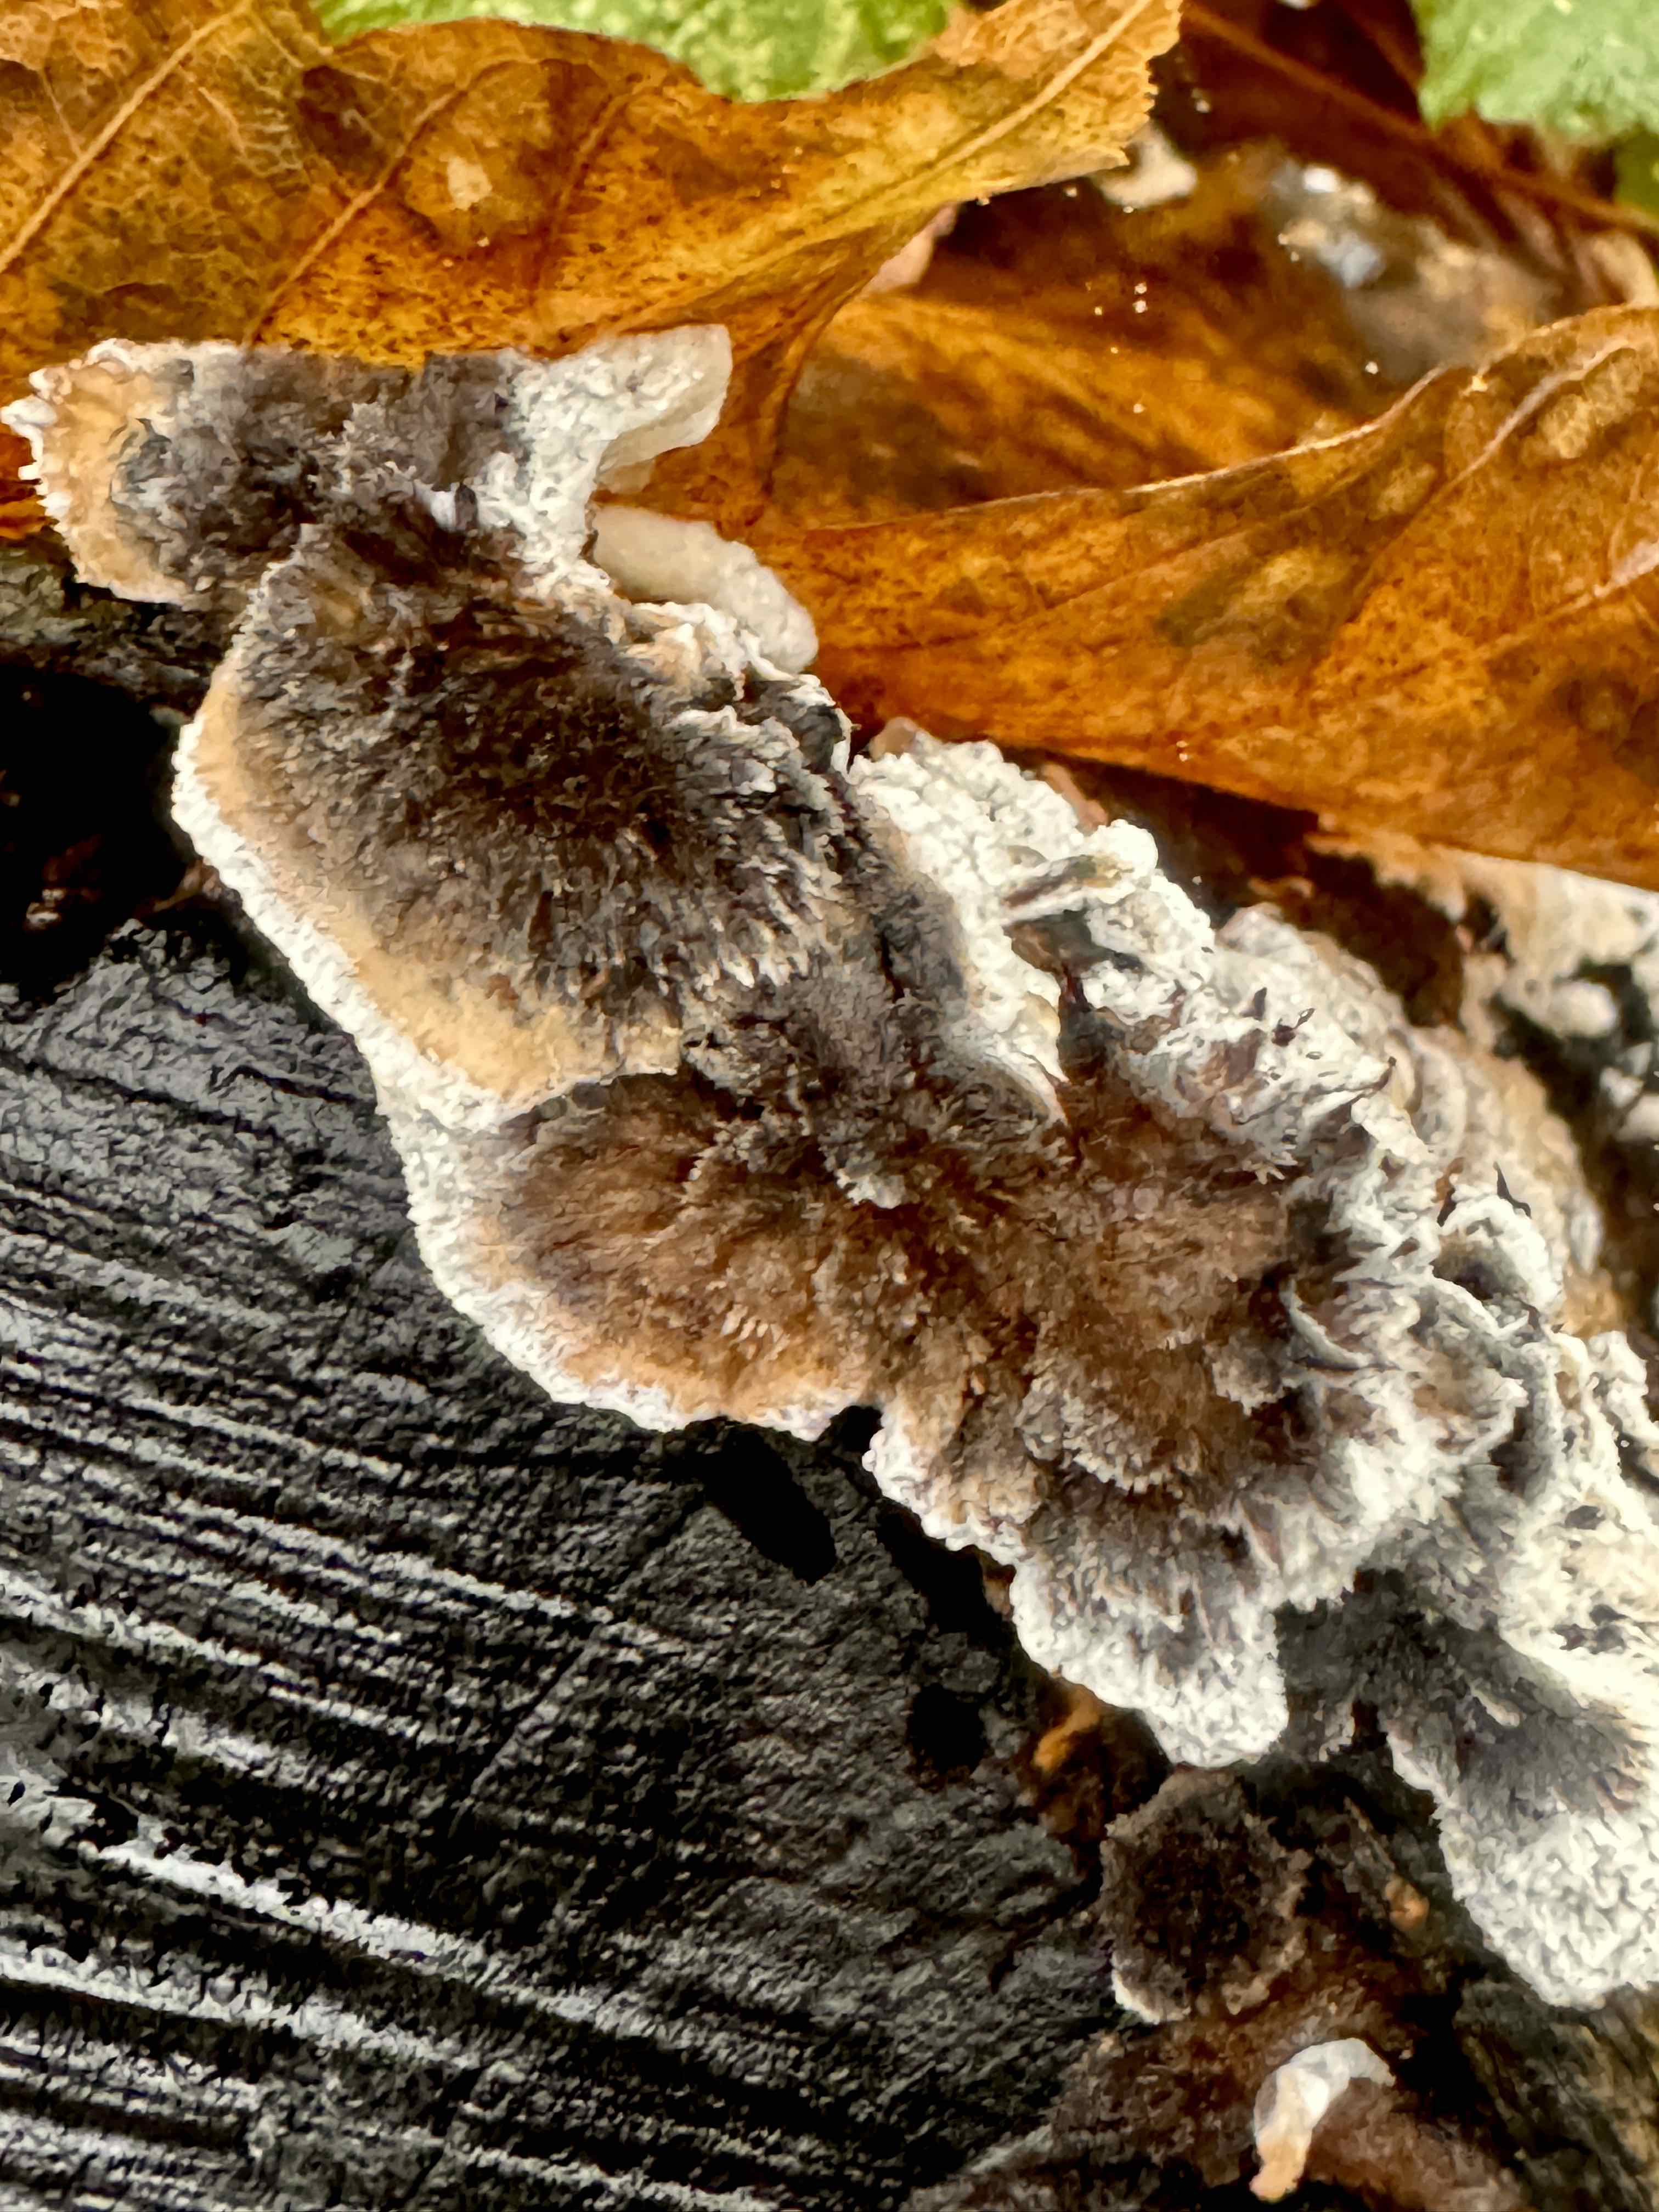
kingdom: Fungi
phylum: Basidiomycota
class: Agaricomycetes
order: Polyporales
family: Phanerochaetaceae
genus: Bjerkandera
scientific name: Bjerkandera adusta
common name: sveden sodporesvamp
